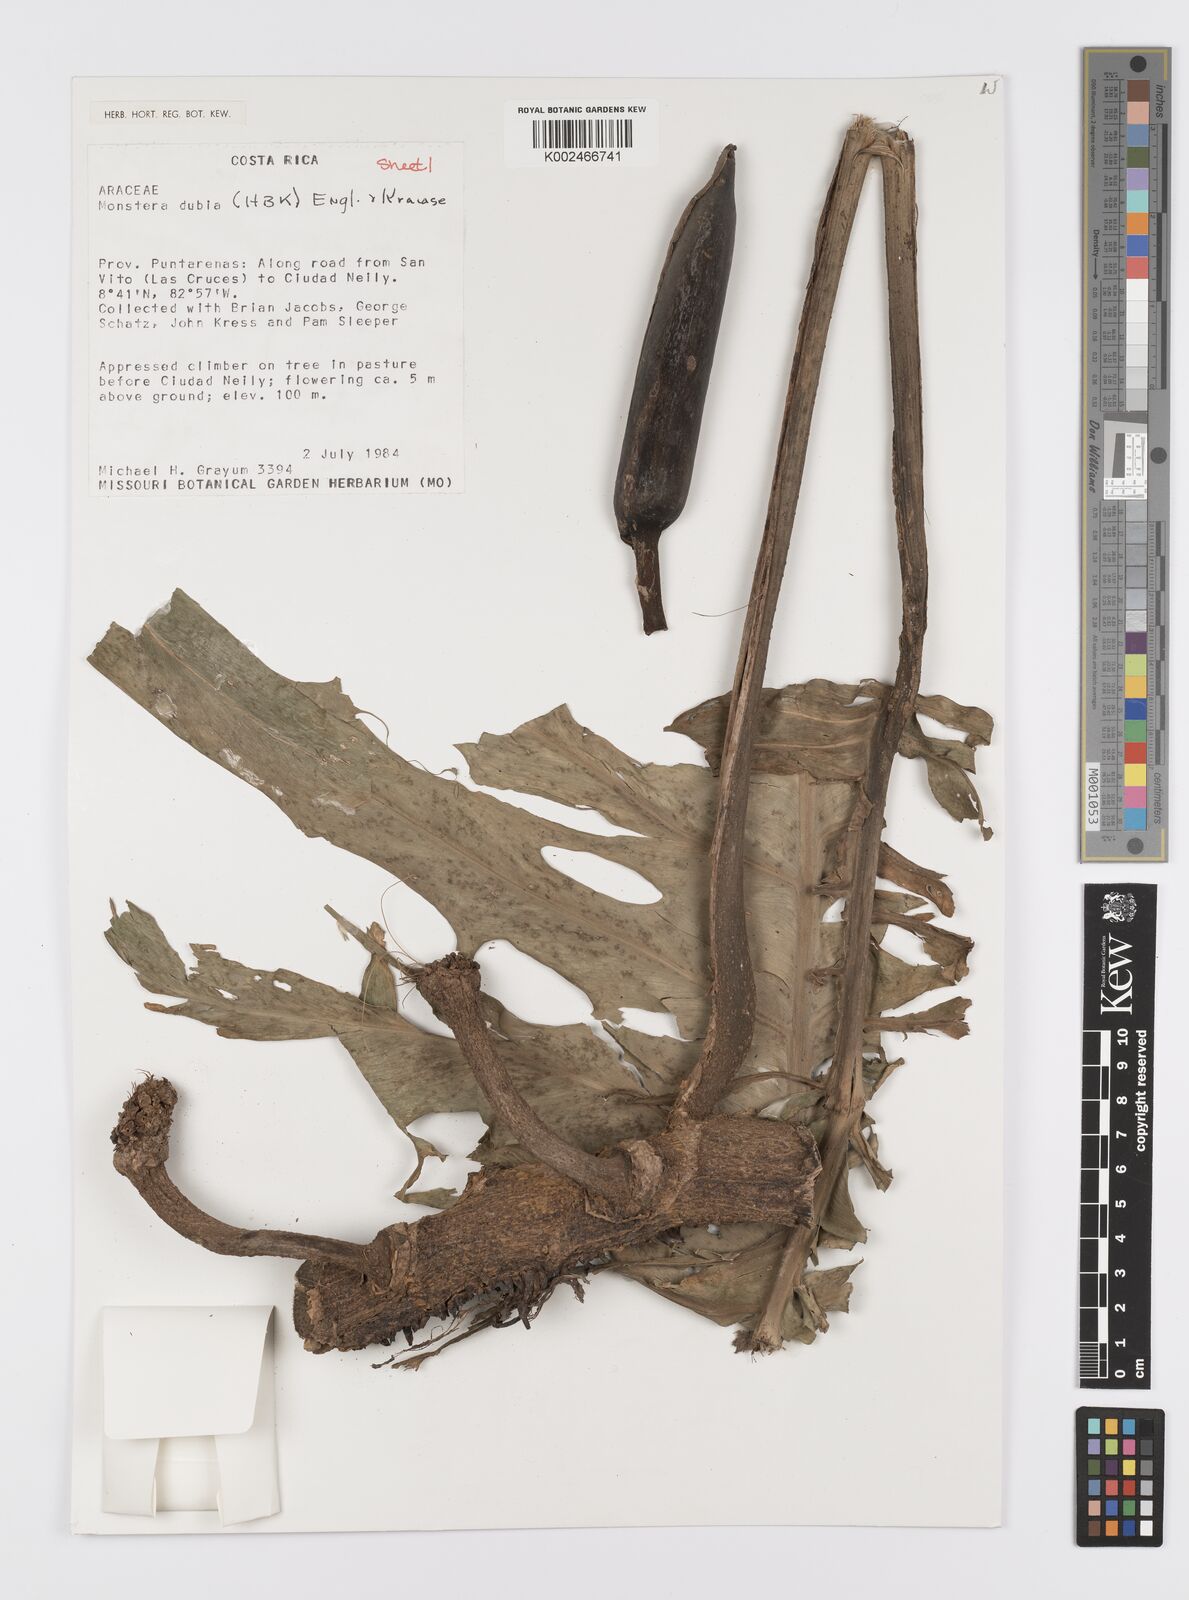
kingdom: Plantae
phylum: Tracheophyta
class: Liliopsida
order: Alismatales
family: Araceae
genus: Monstera
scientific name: Monstera dubia
